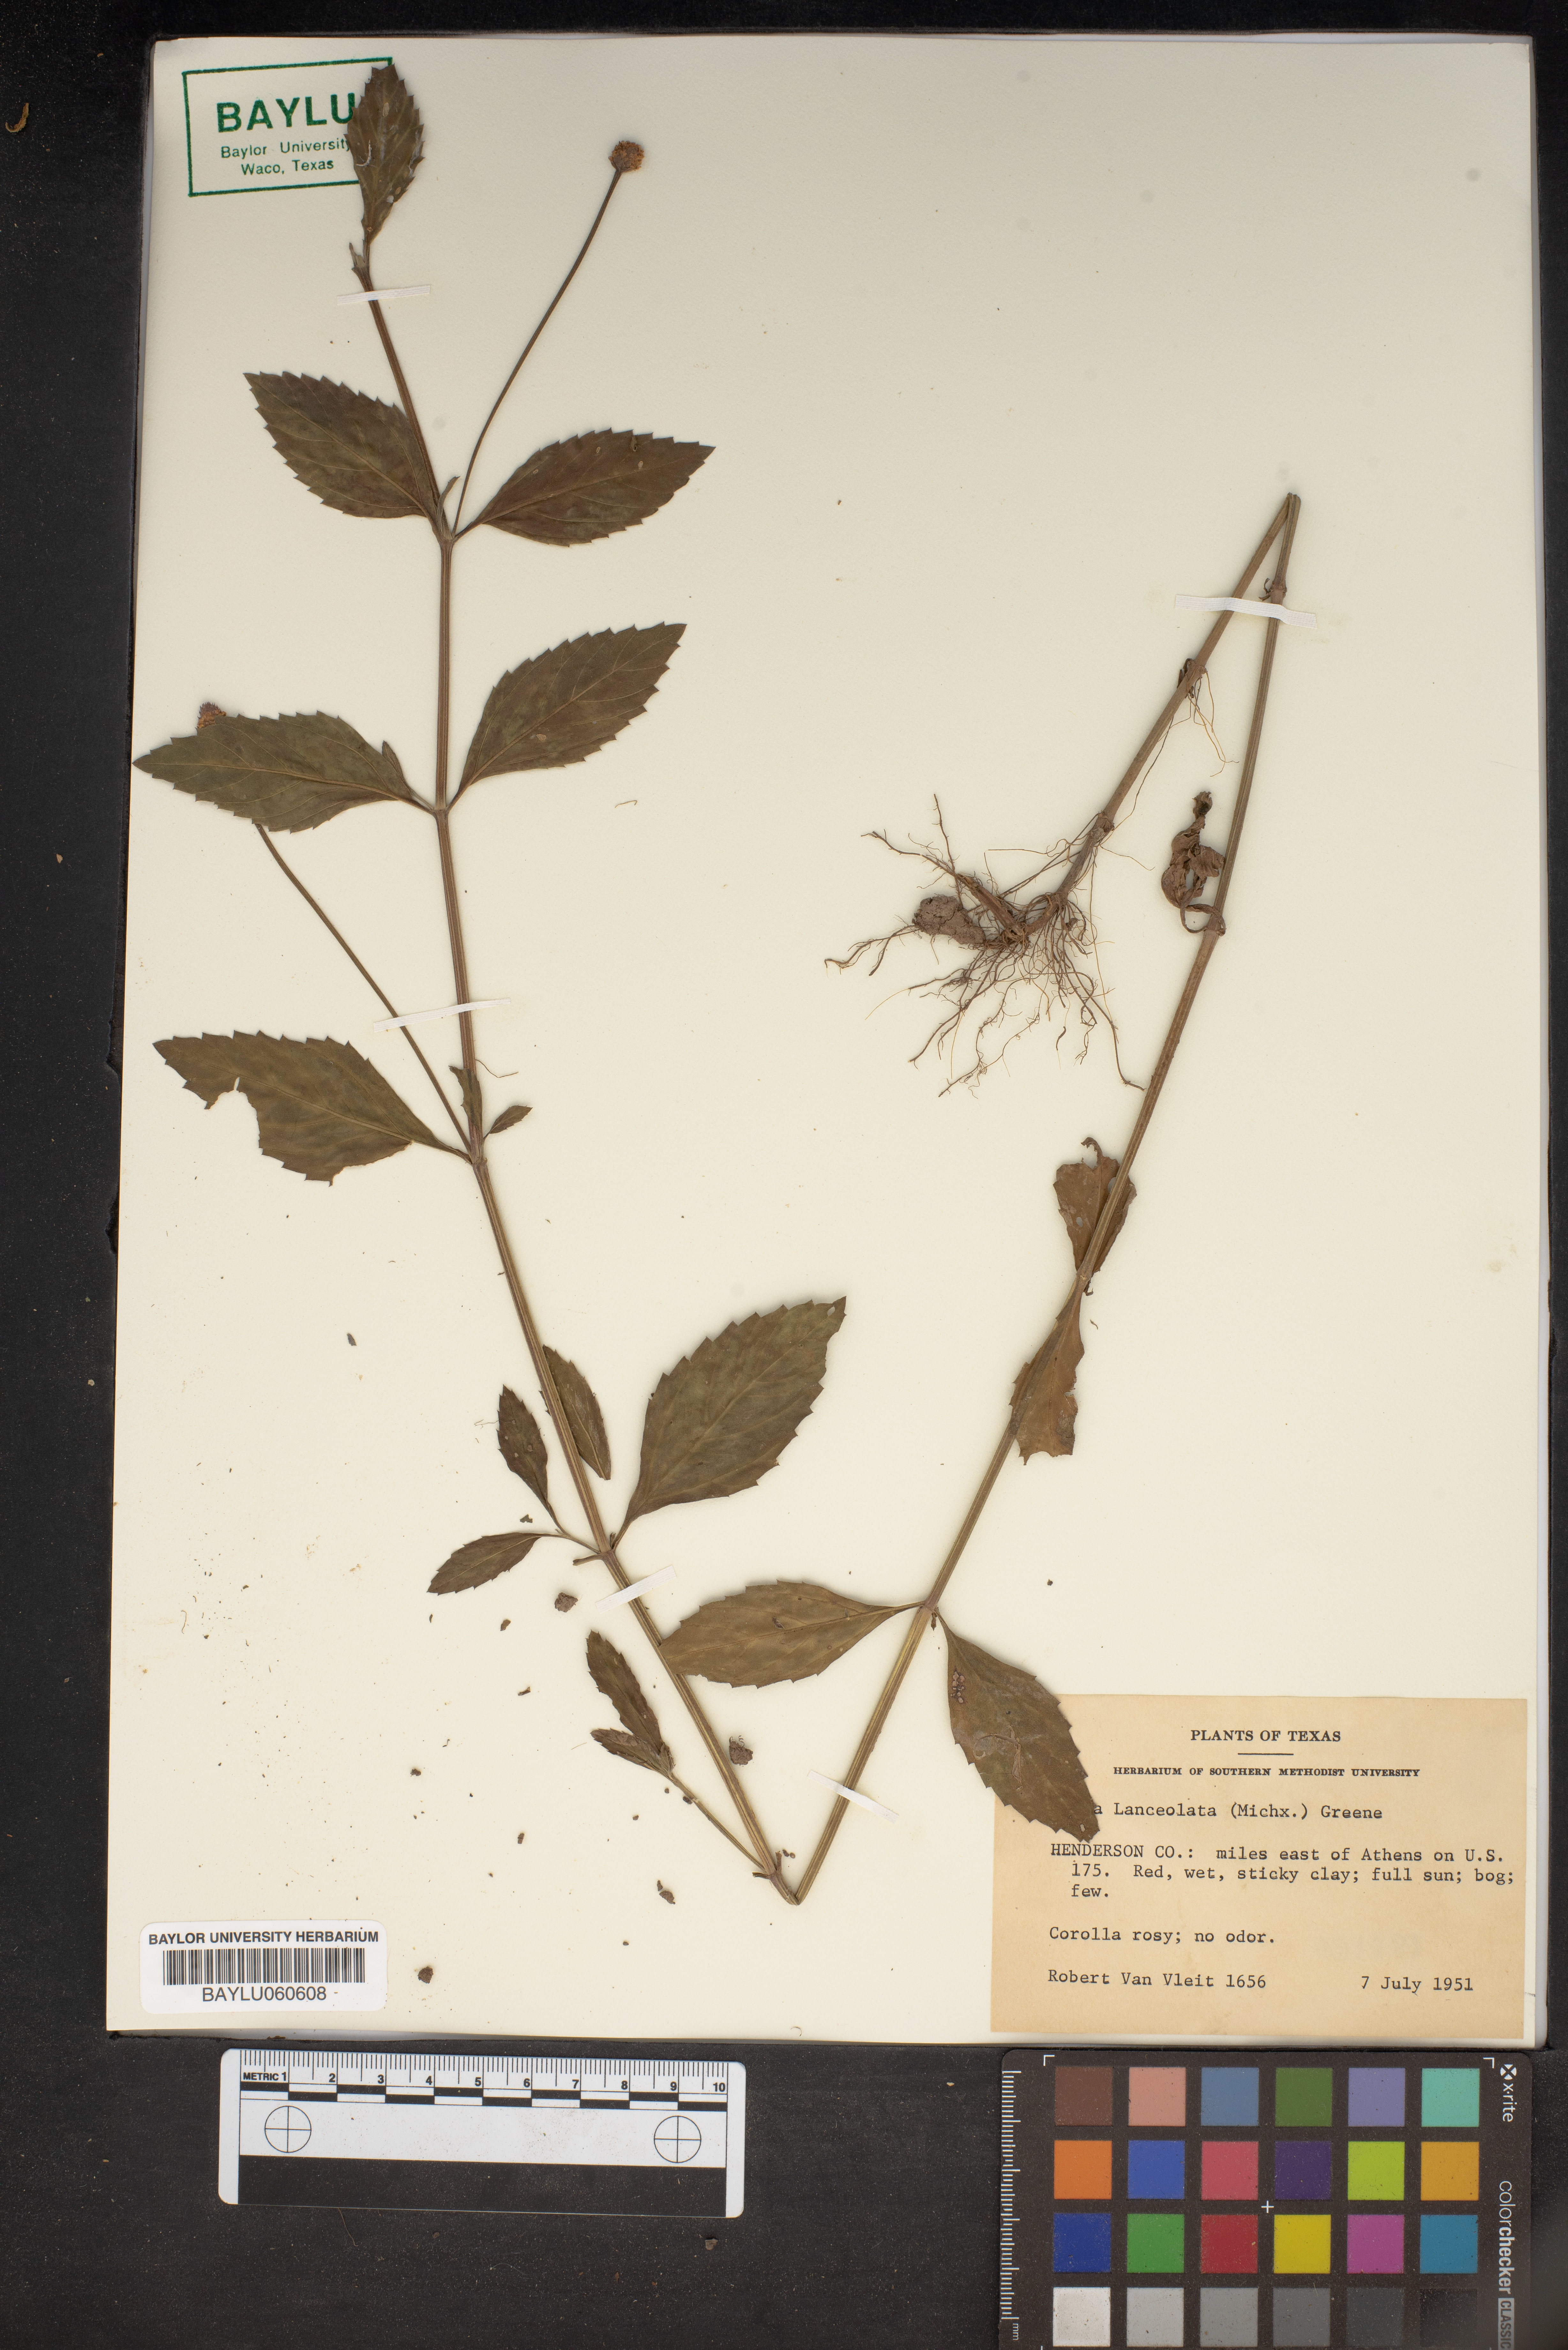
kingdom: Plantae
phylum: Tracheophyta
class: Magnoliopsida
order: Lamiales
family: Verbenaceae
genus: Phyla
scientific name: Phyla lanceolata
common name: Northern fogfruit
